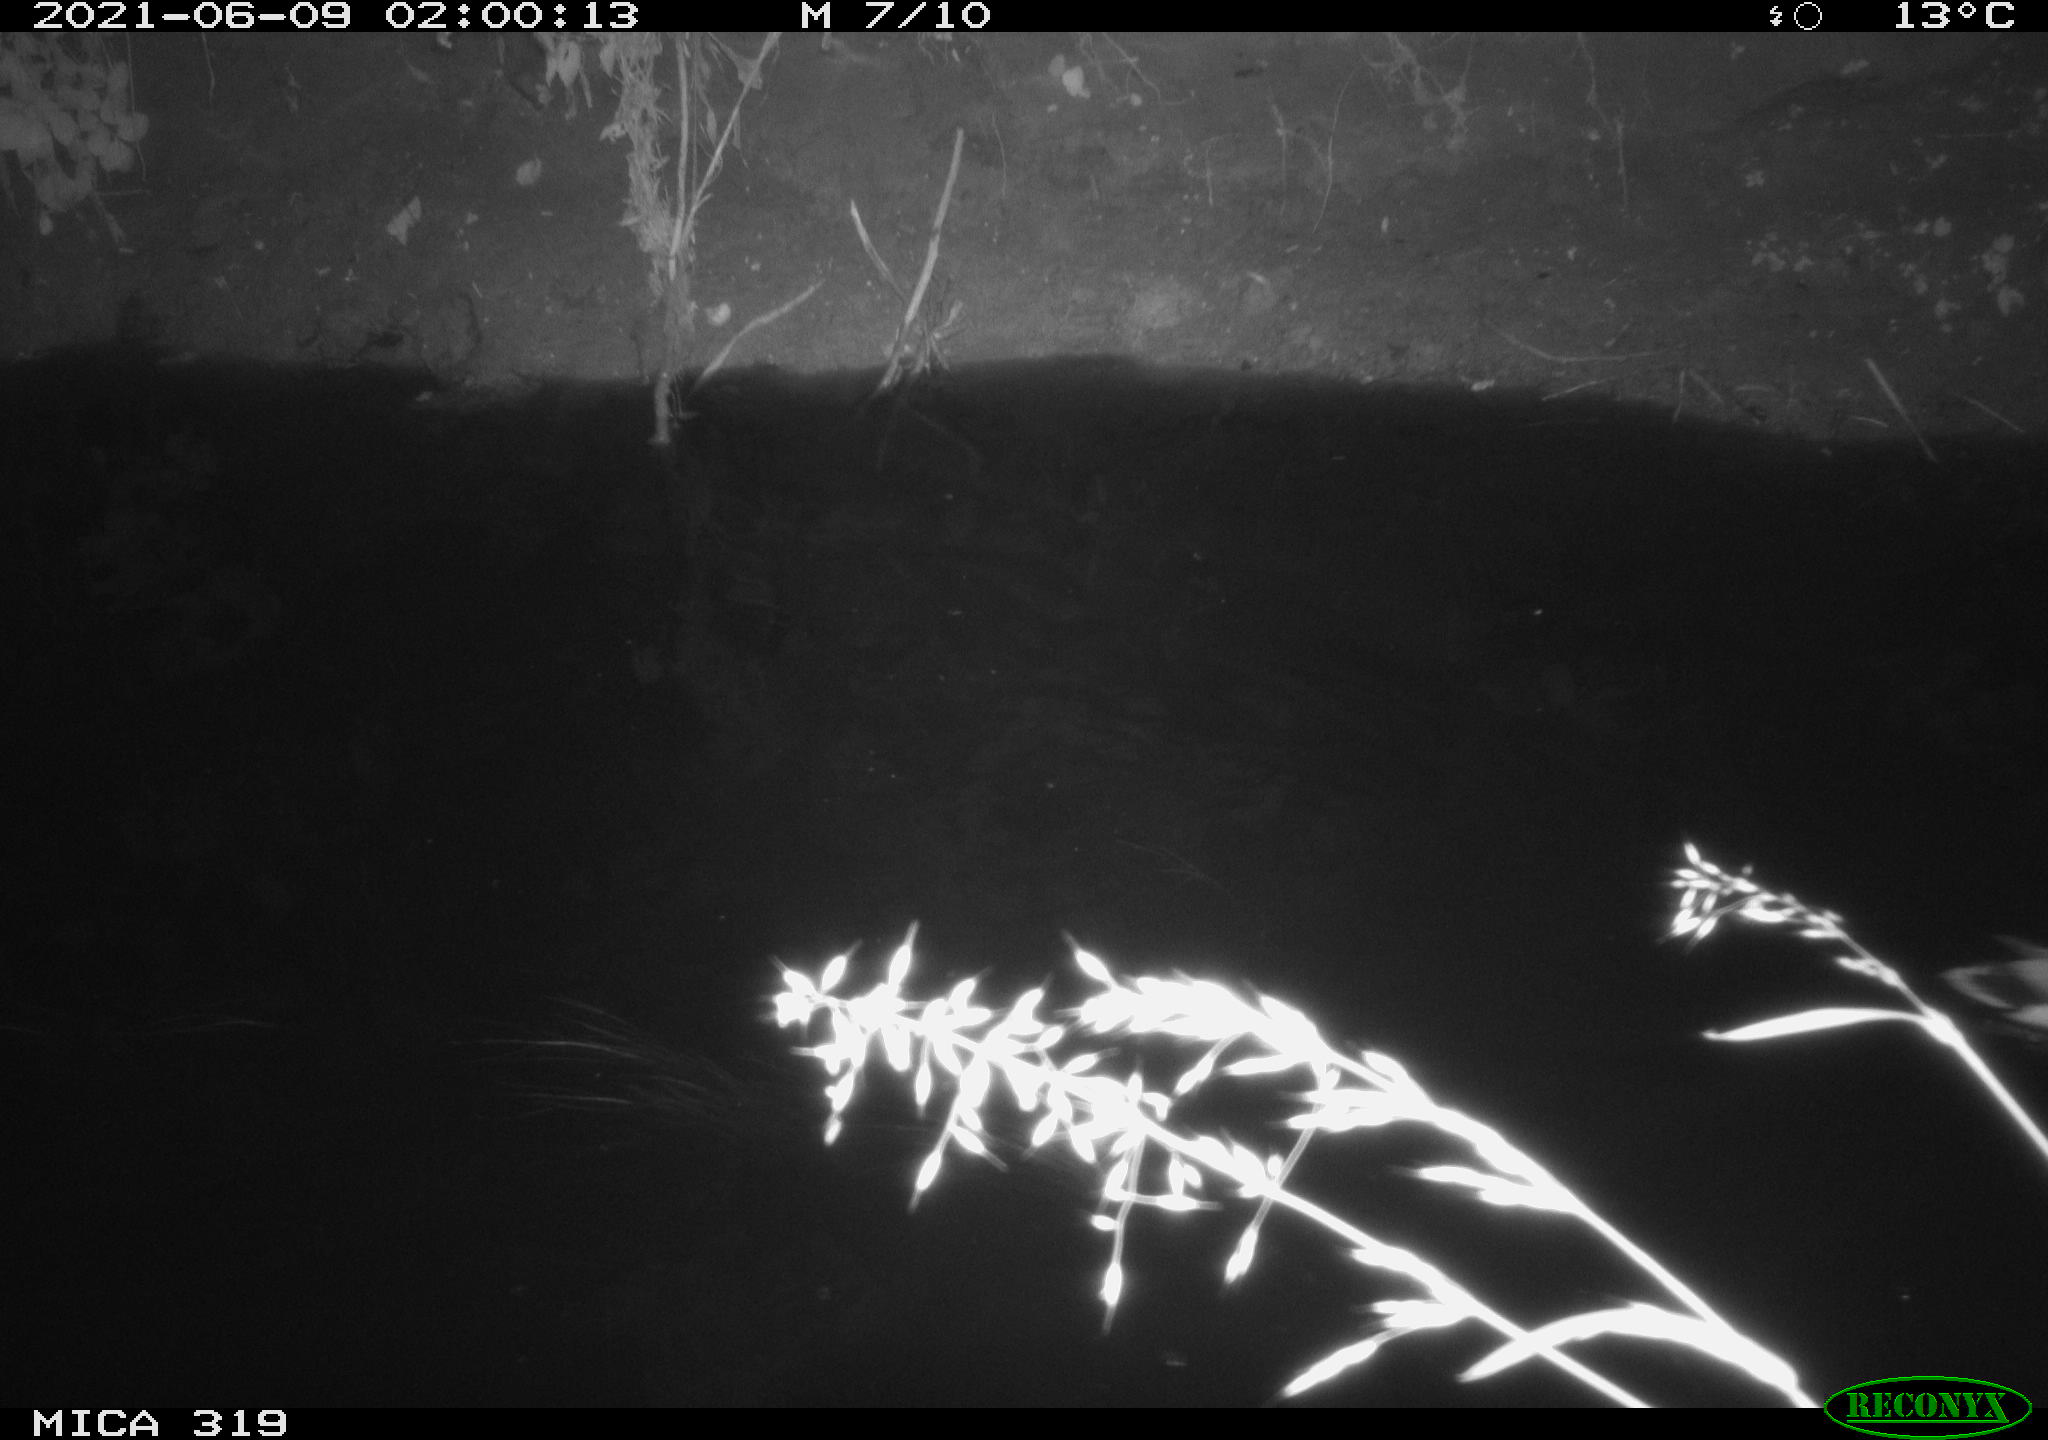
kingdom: Animalia
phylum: Chordata
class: Aves
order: Anseriformes
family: Anatidae
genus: Anas
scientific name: Anas platyrhynchos
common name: Mallard
